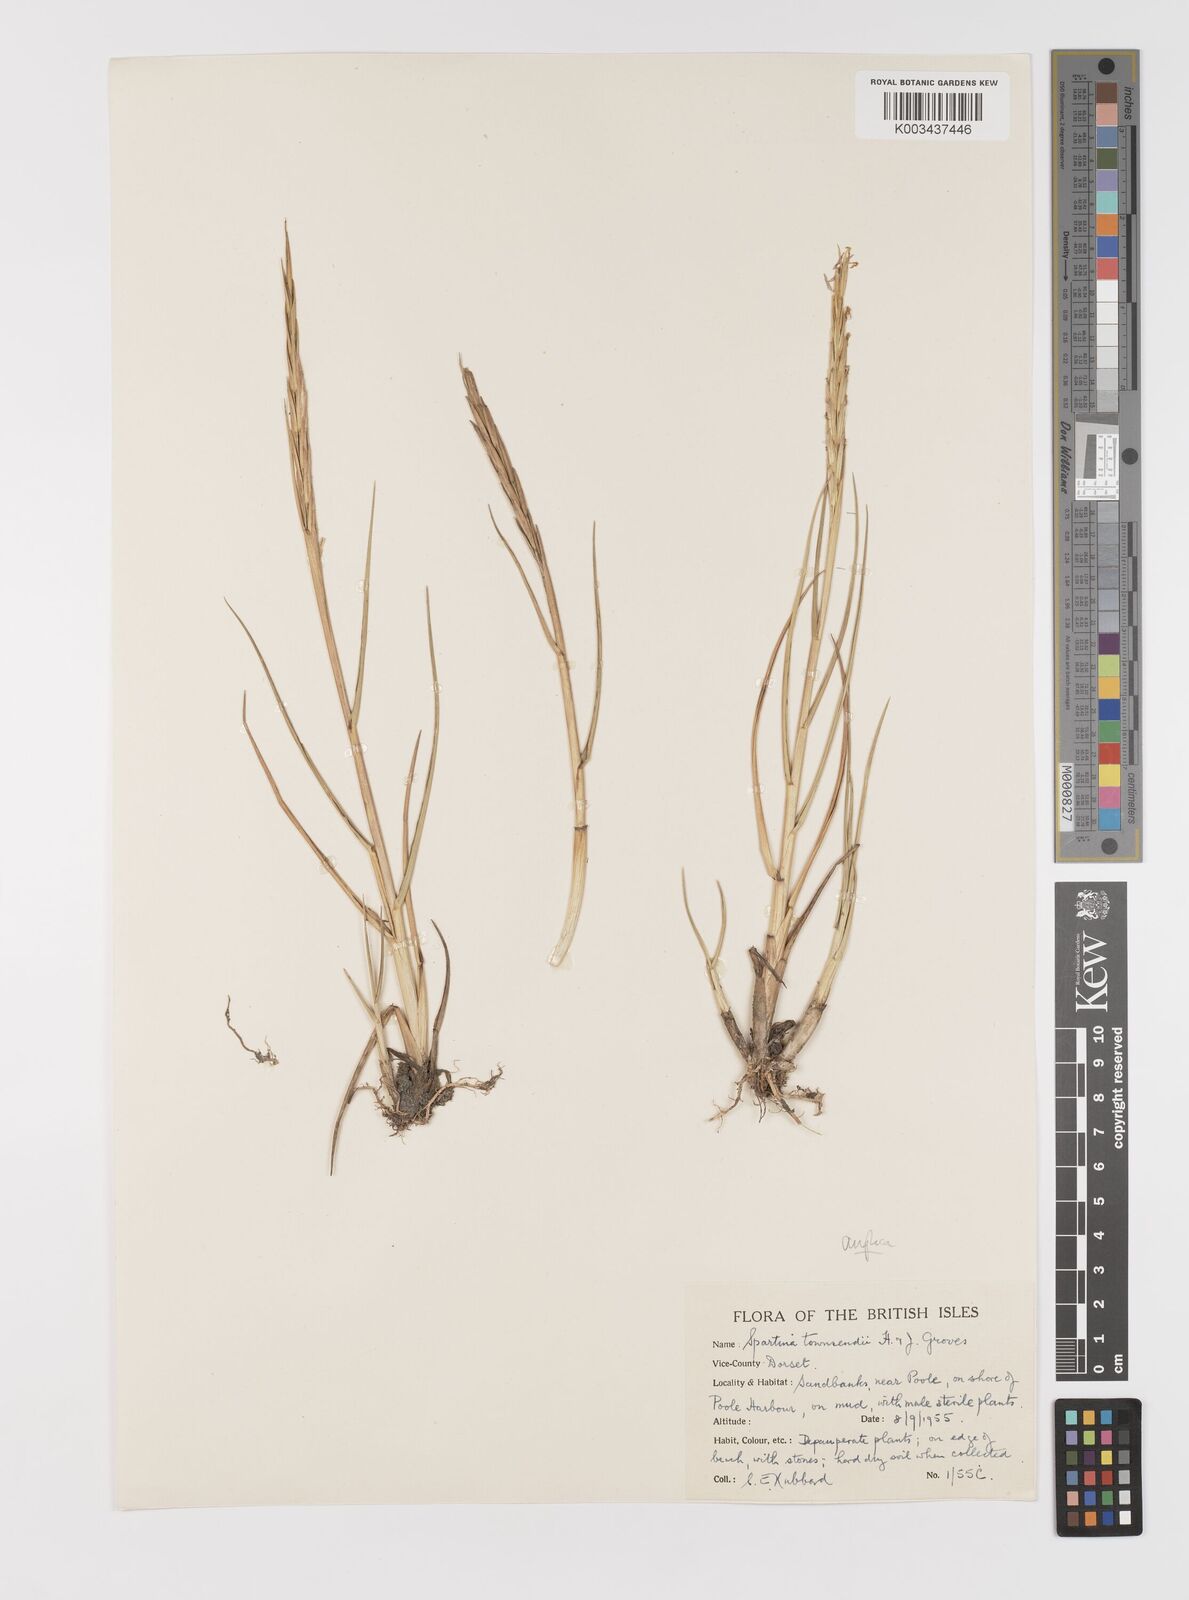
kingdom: Plantae
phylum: Tracheophyta
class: Liliopsida
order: Poales
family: Poaceae
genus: Sporobolus
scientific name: Sporobolus anglicus
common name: English cordgrass
